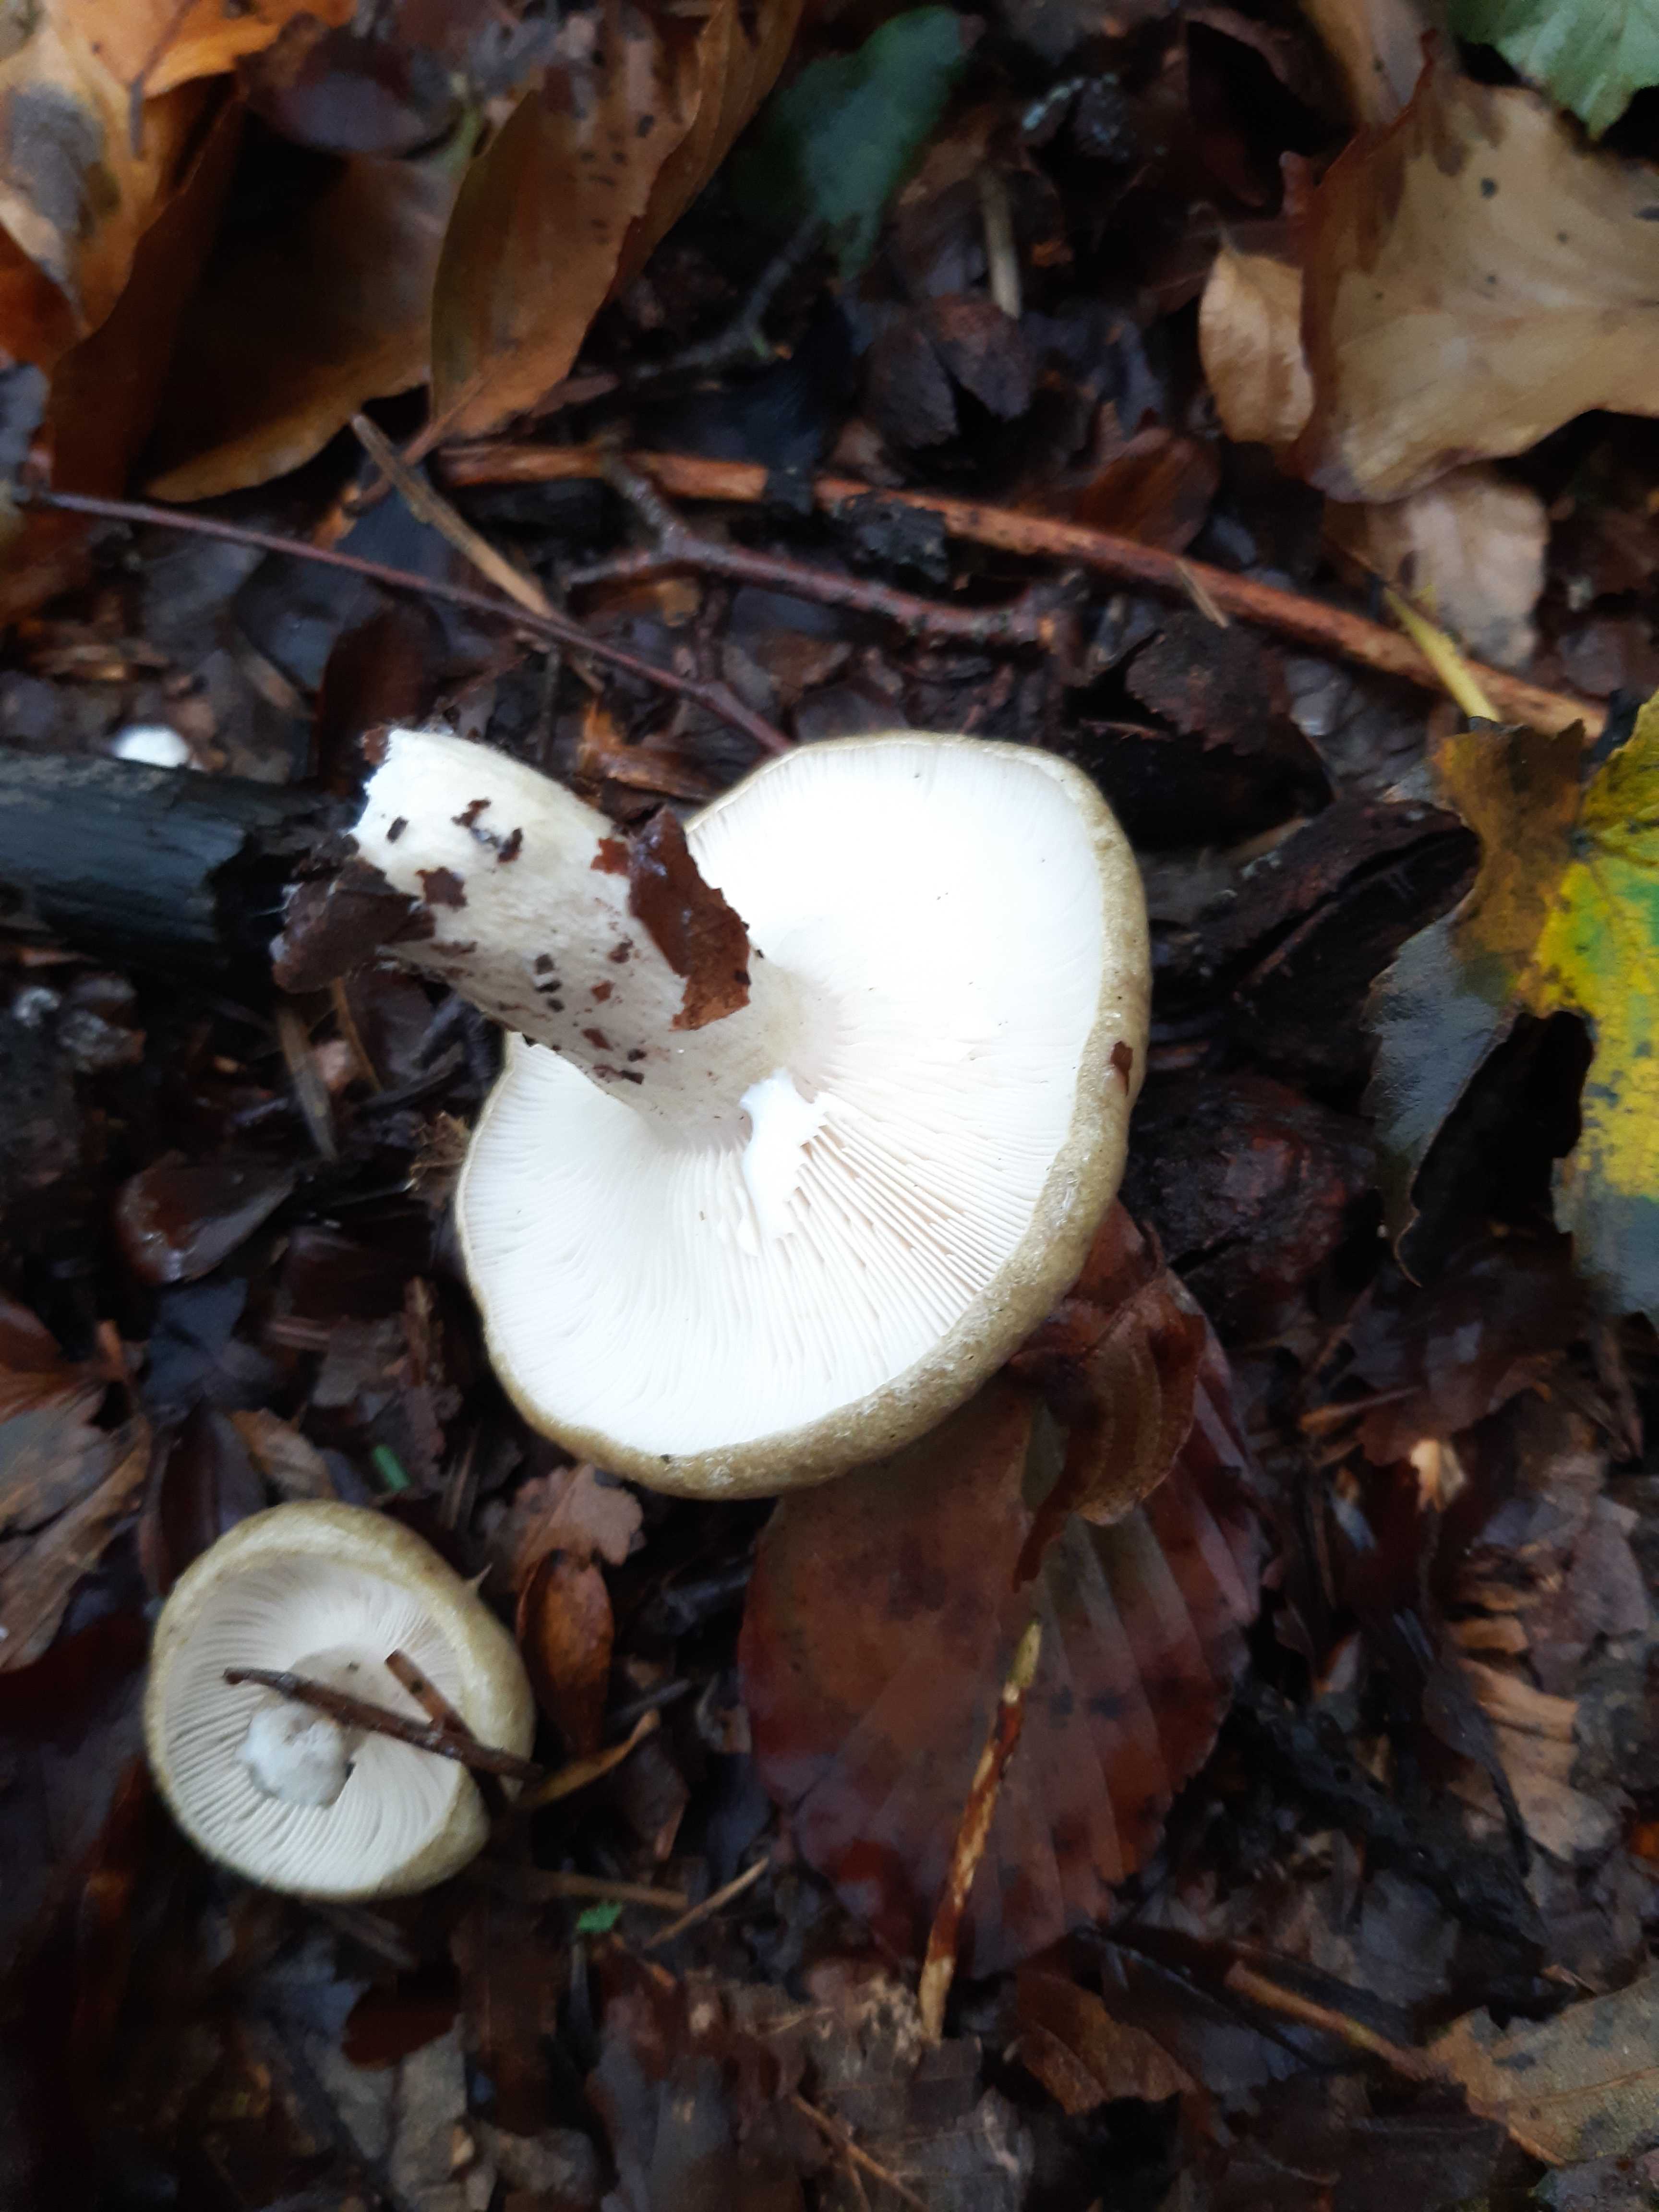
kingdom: Fungi
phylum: Basidiomycota
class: Agaricomycetes
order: Russulales
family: Russulaceae
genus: Lactarius
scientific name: Lactarius blennius
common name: dråbeplettet mælkehat
